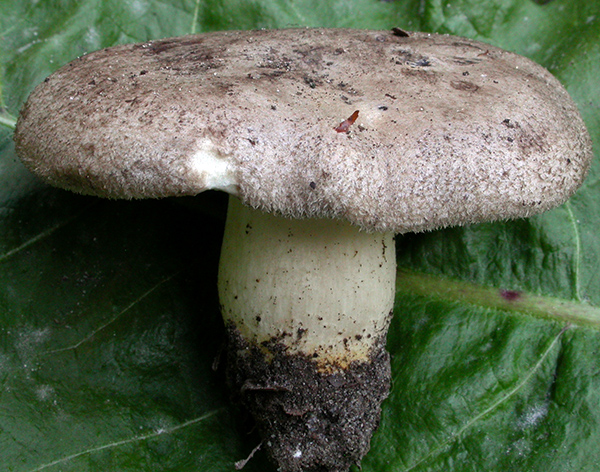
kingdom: Fungi
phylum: Basidiomycota
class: Agaricomycetes
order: Agaricales
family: Pseudoclitocybaceae
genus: Pogonoloma
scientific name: Pogonoloma spinulosum
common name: duftende alfehat
